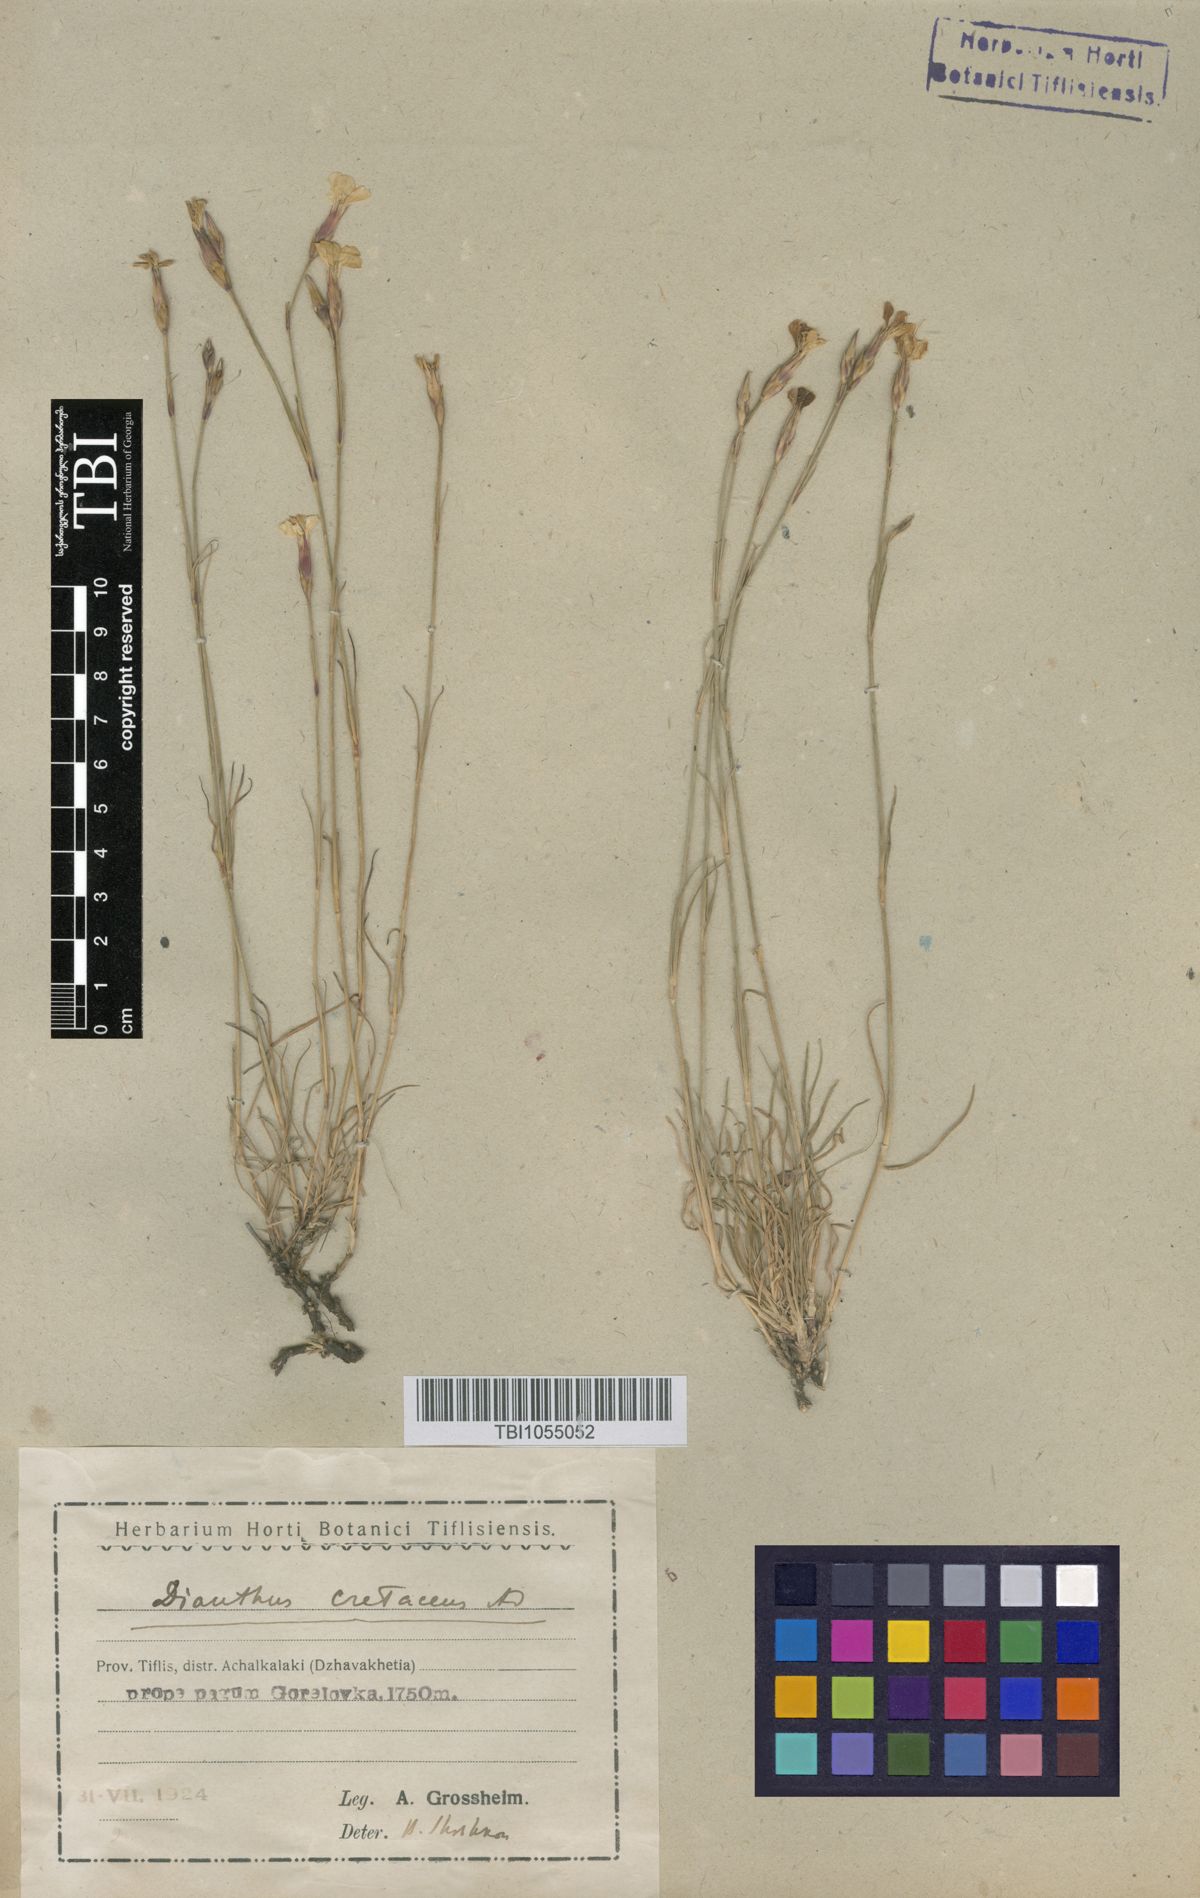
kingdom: Plantae
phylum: Tracheophyta
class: Magnoliopsida
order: Caryophyllales
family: Caryophyllaceae
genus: Dianthus
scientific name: Dianthus cretaceus
